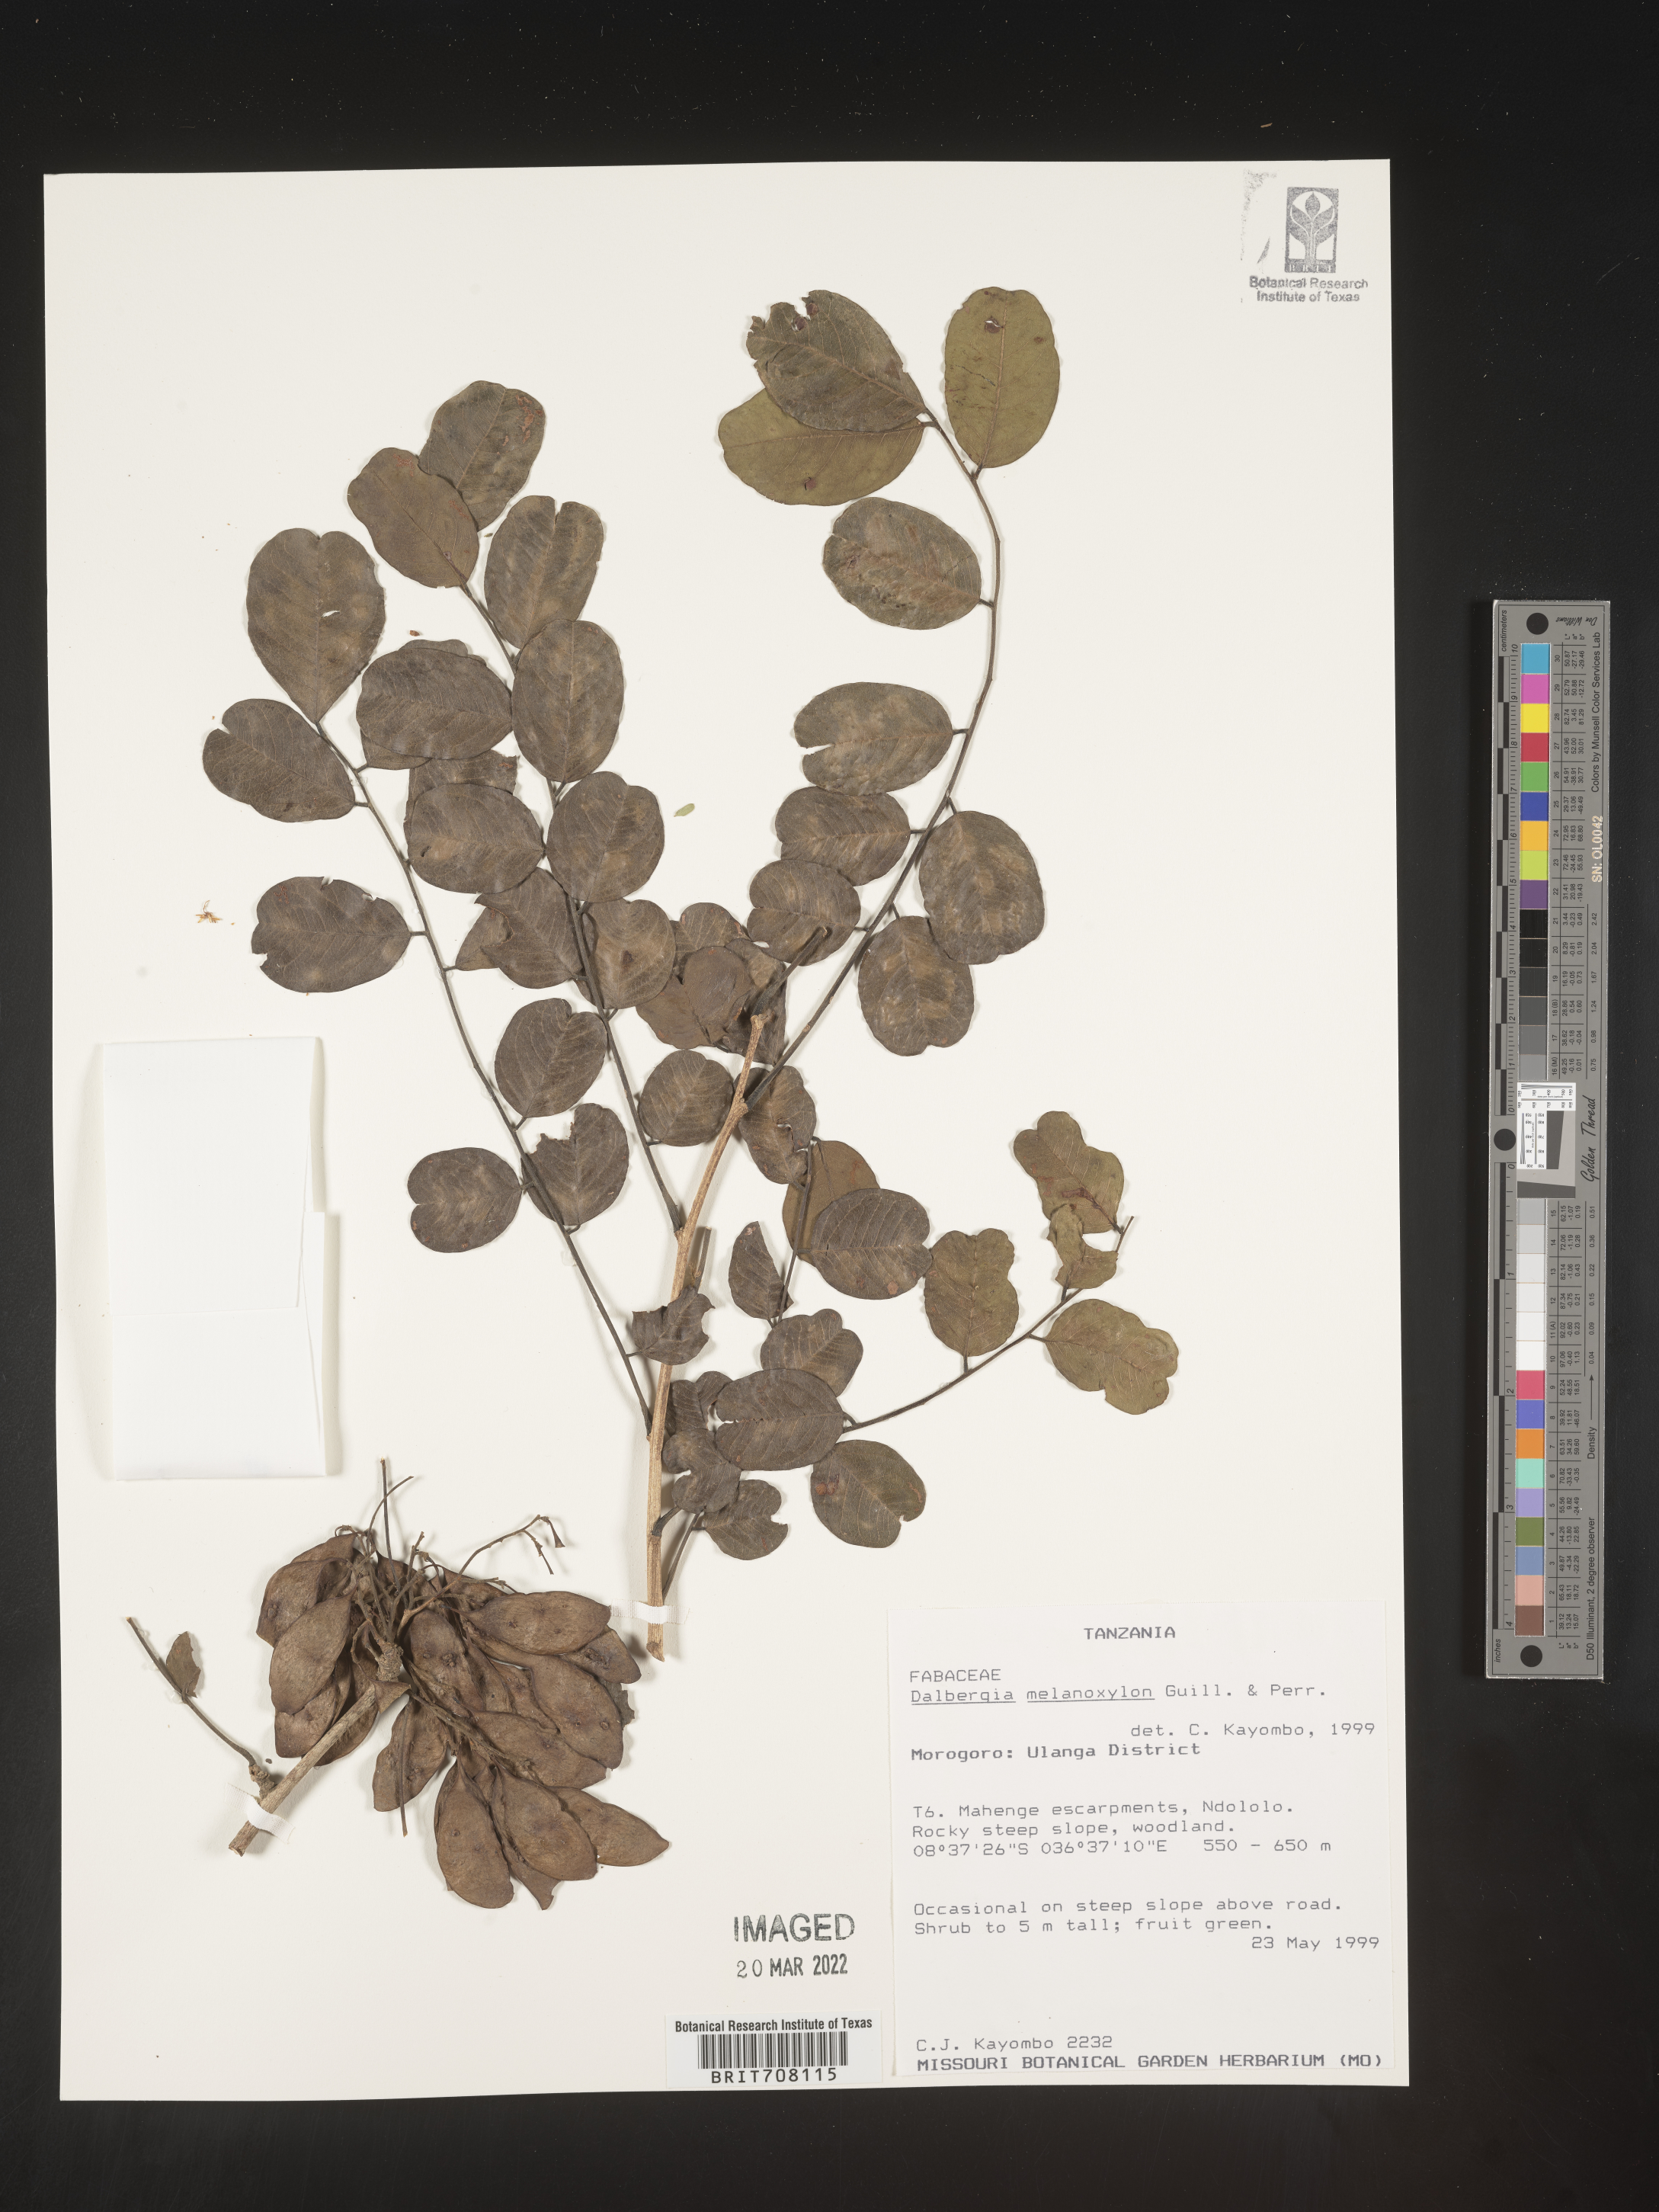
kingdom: Plantae
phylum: Tracheophyta
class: Magnoliopsida
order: Fabales
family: Fabaceae
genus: Dalbergia
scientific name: Dalbergia
